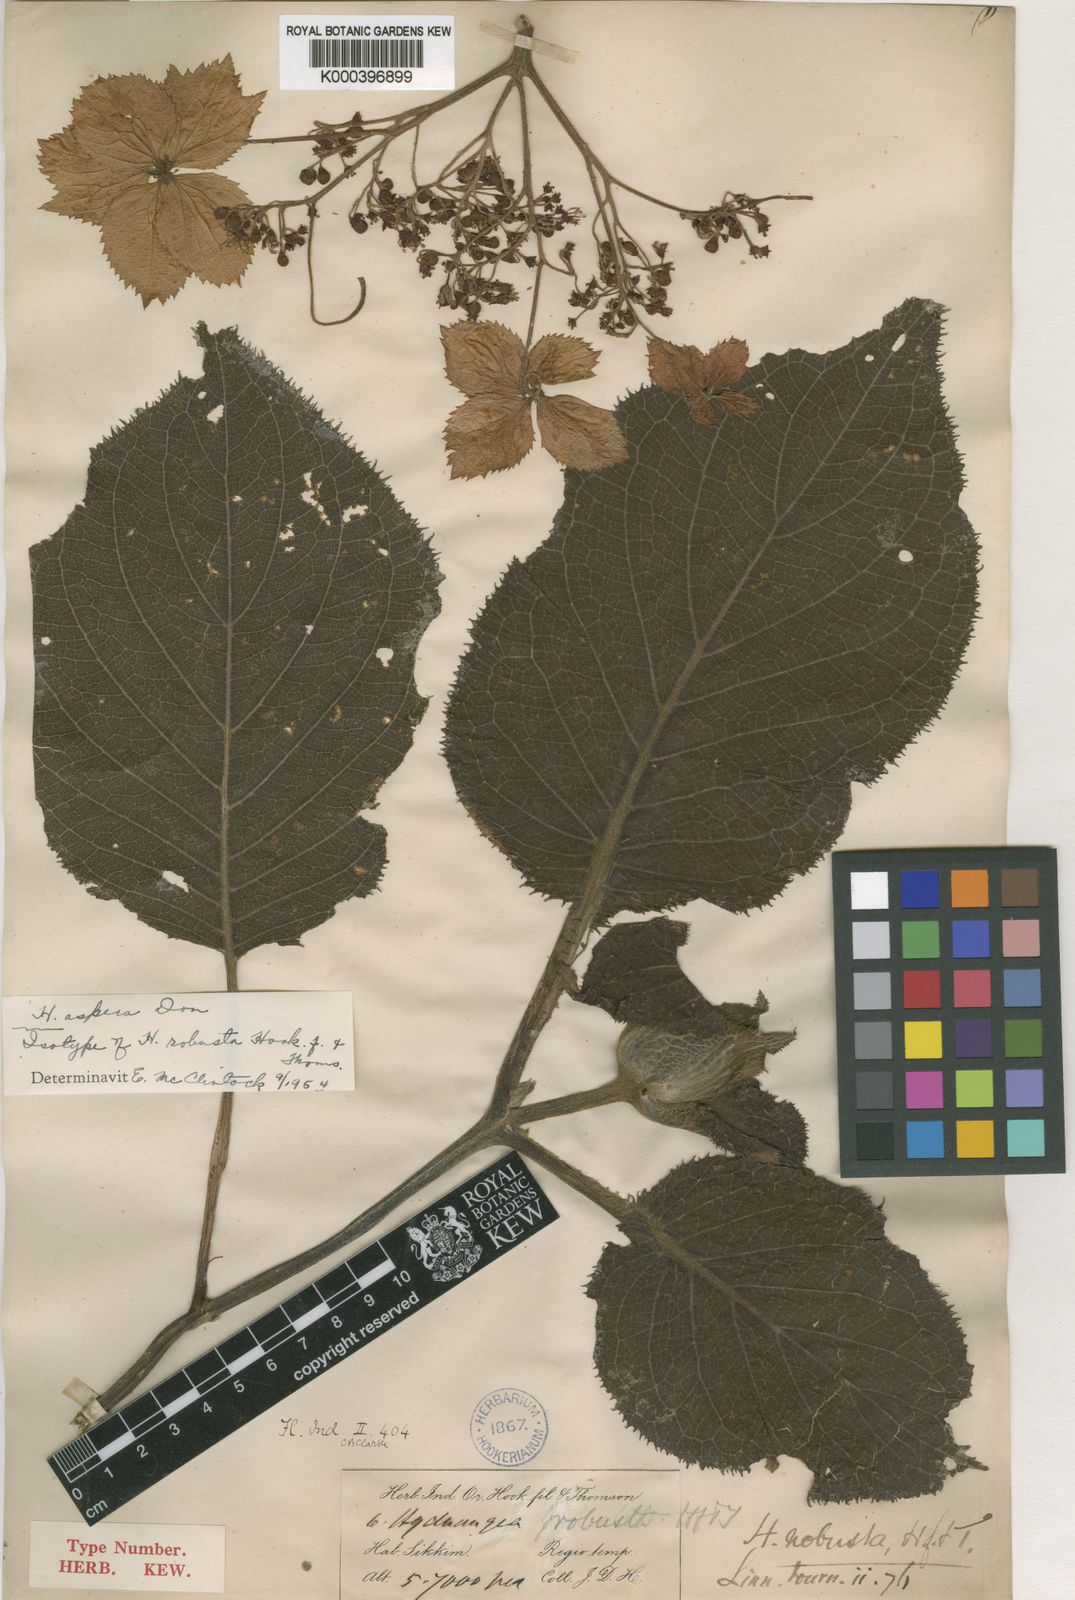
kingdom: Plantae
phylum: Tracheophyta
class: Magnoliopsida
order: Cornales
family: Hydrangeaceae
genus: Hydrangea
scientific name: Hydrangea aspera
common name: Rough-leaf hydrangea
